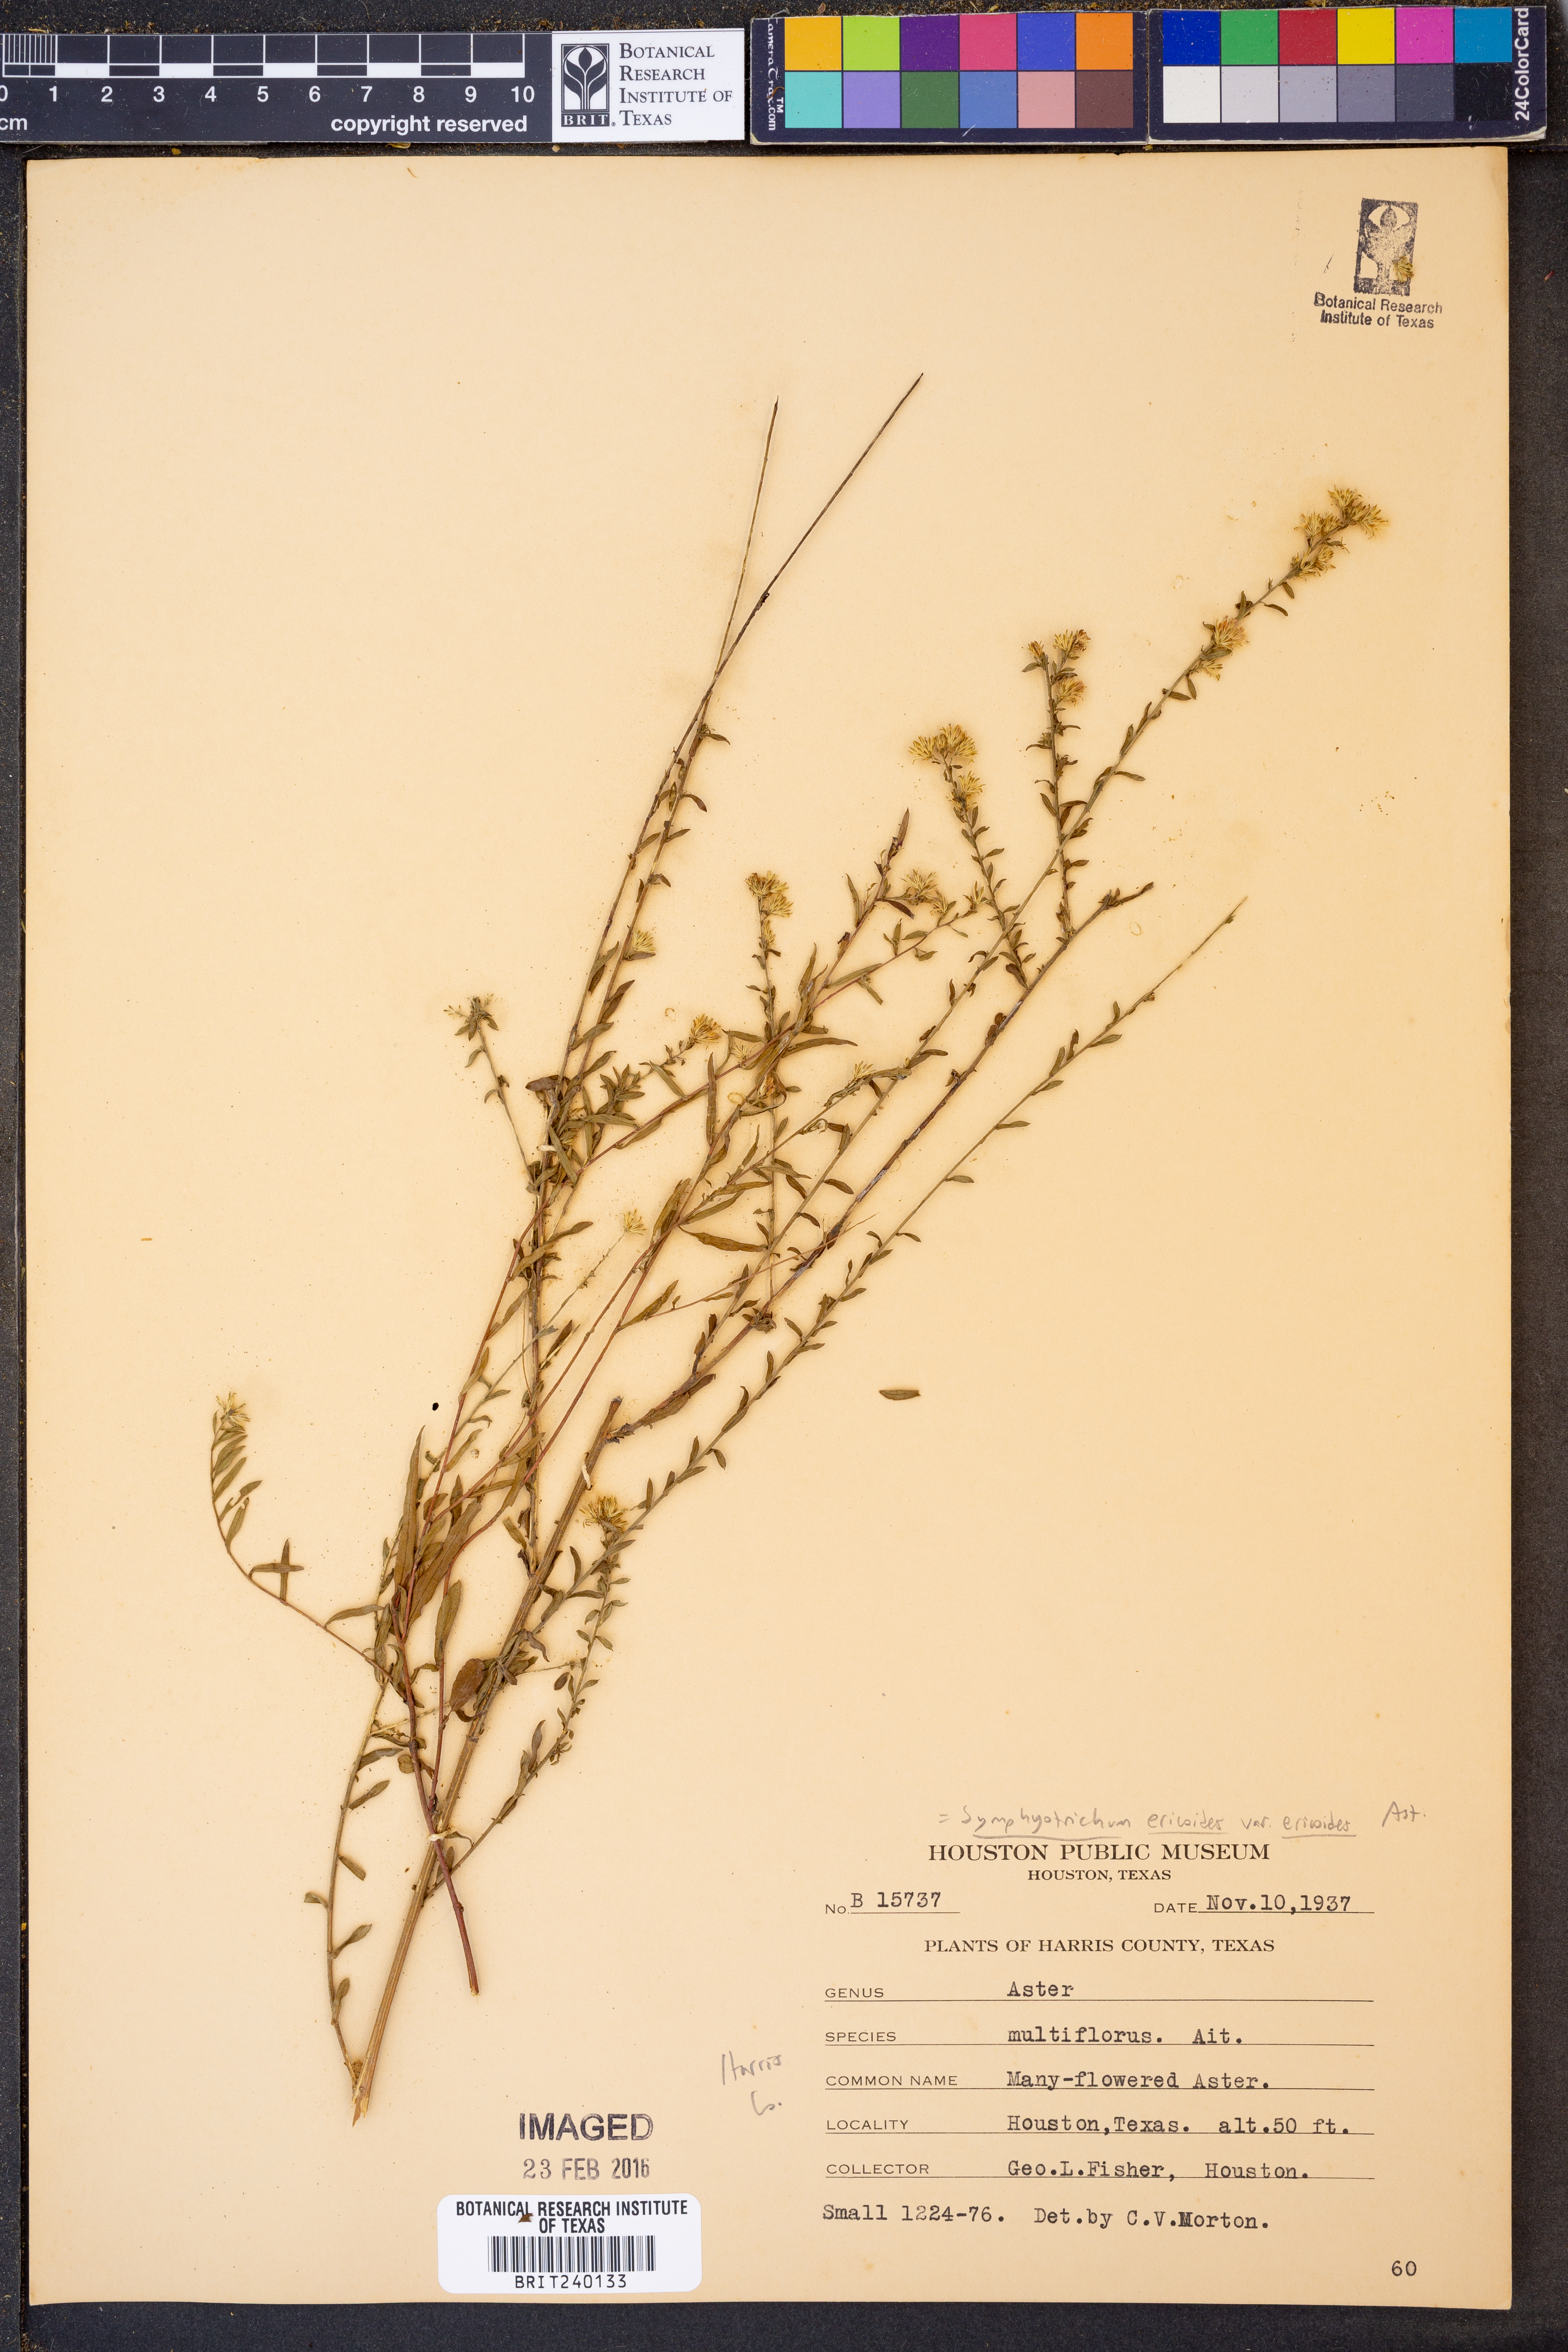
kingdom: Plantae
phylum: Tracheophyta
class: Magnoliopsida
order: Asterales
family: Asteraceae
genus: Symphyotrichum
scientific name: Symphyotrichum ericoides
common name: Heath aster
